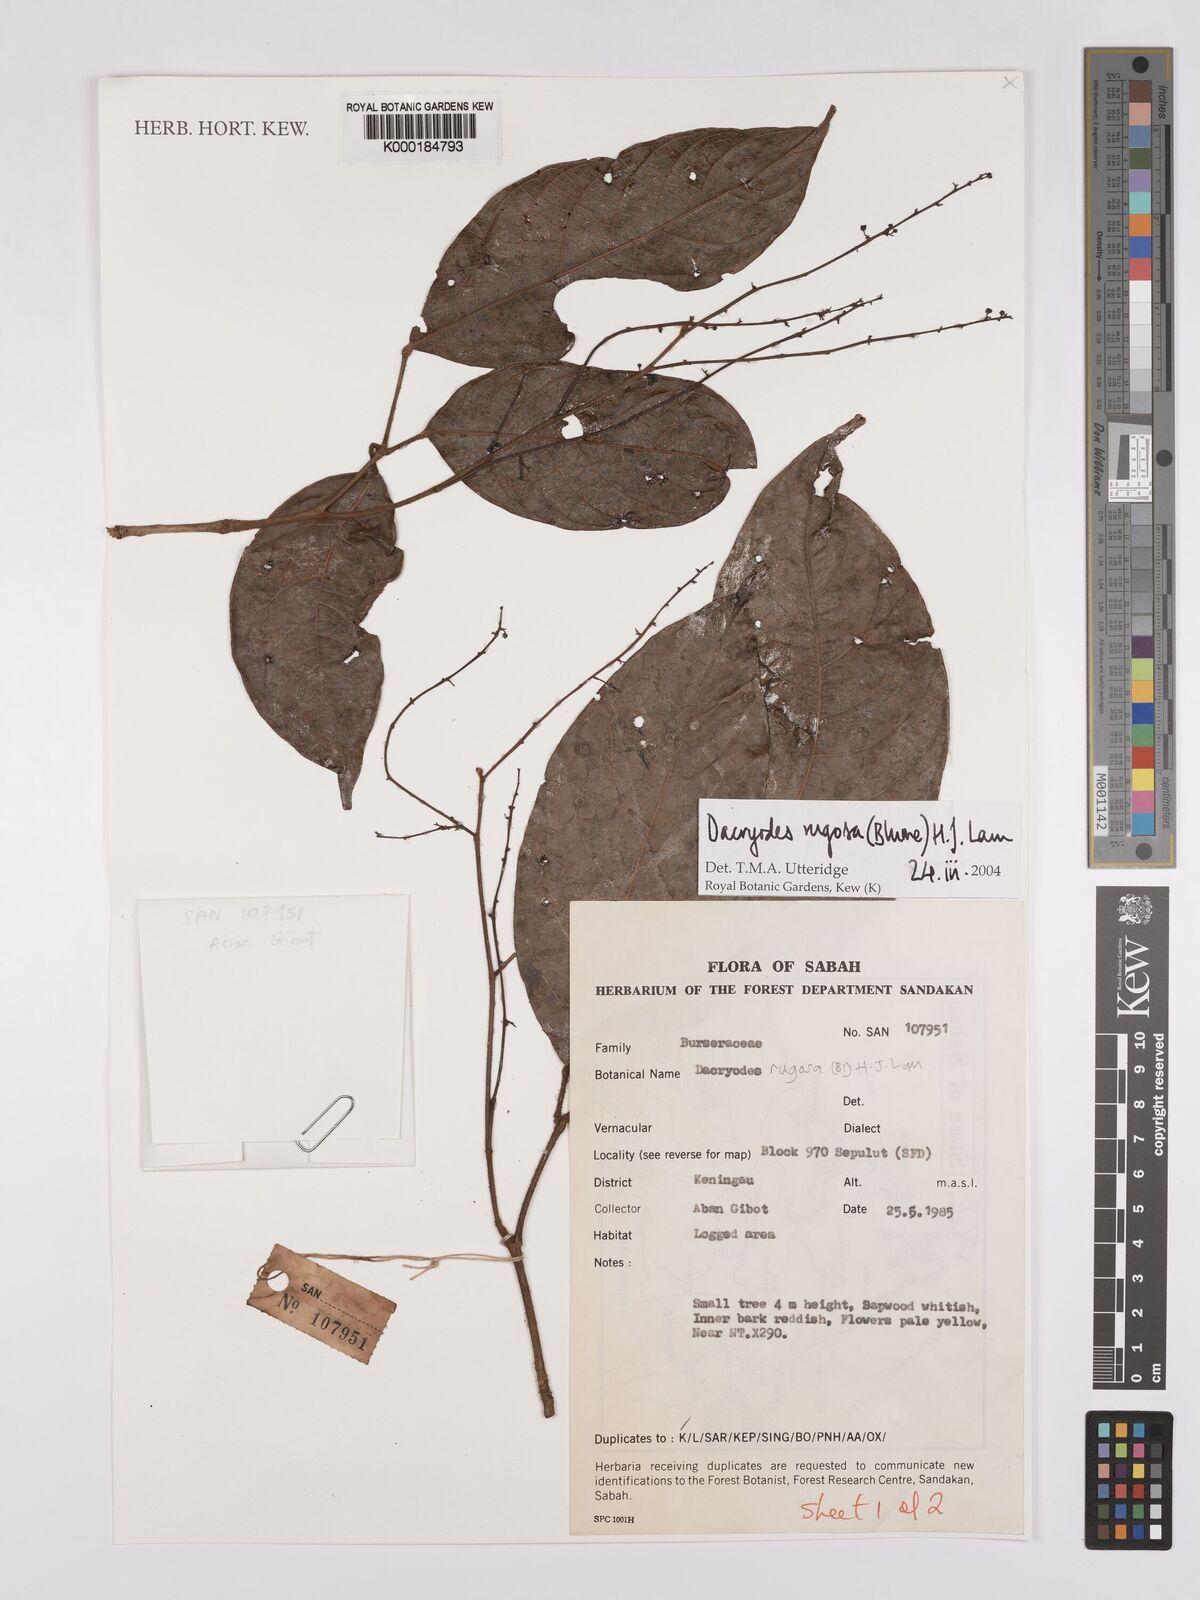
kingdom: Plantae
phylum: Tracheophyta
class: Magnoliopsida
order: Sapindales
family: Burseraceae
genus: Dacryodes
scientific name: Dacryodes rugosa
